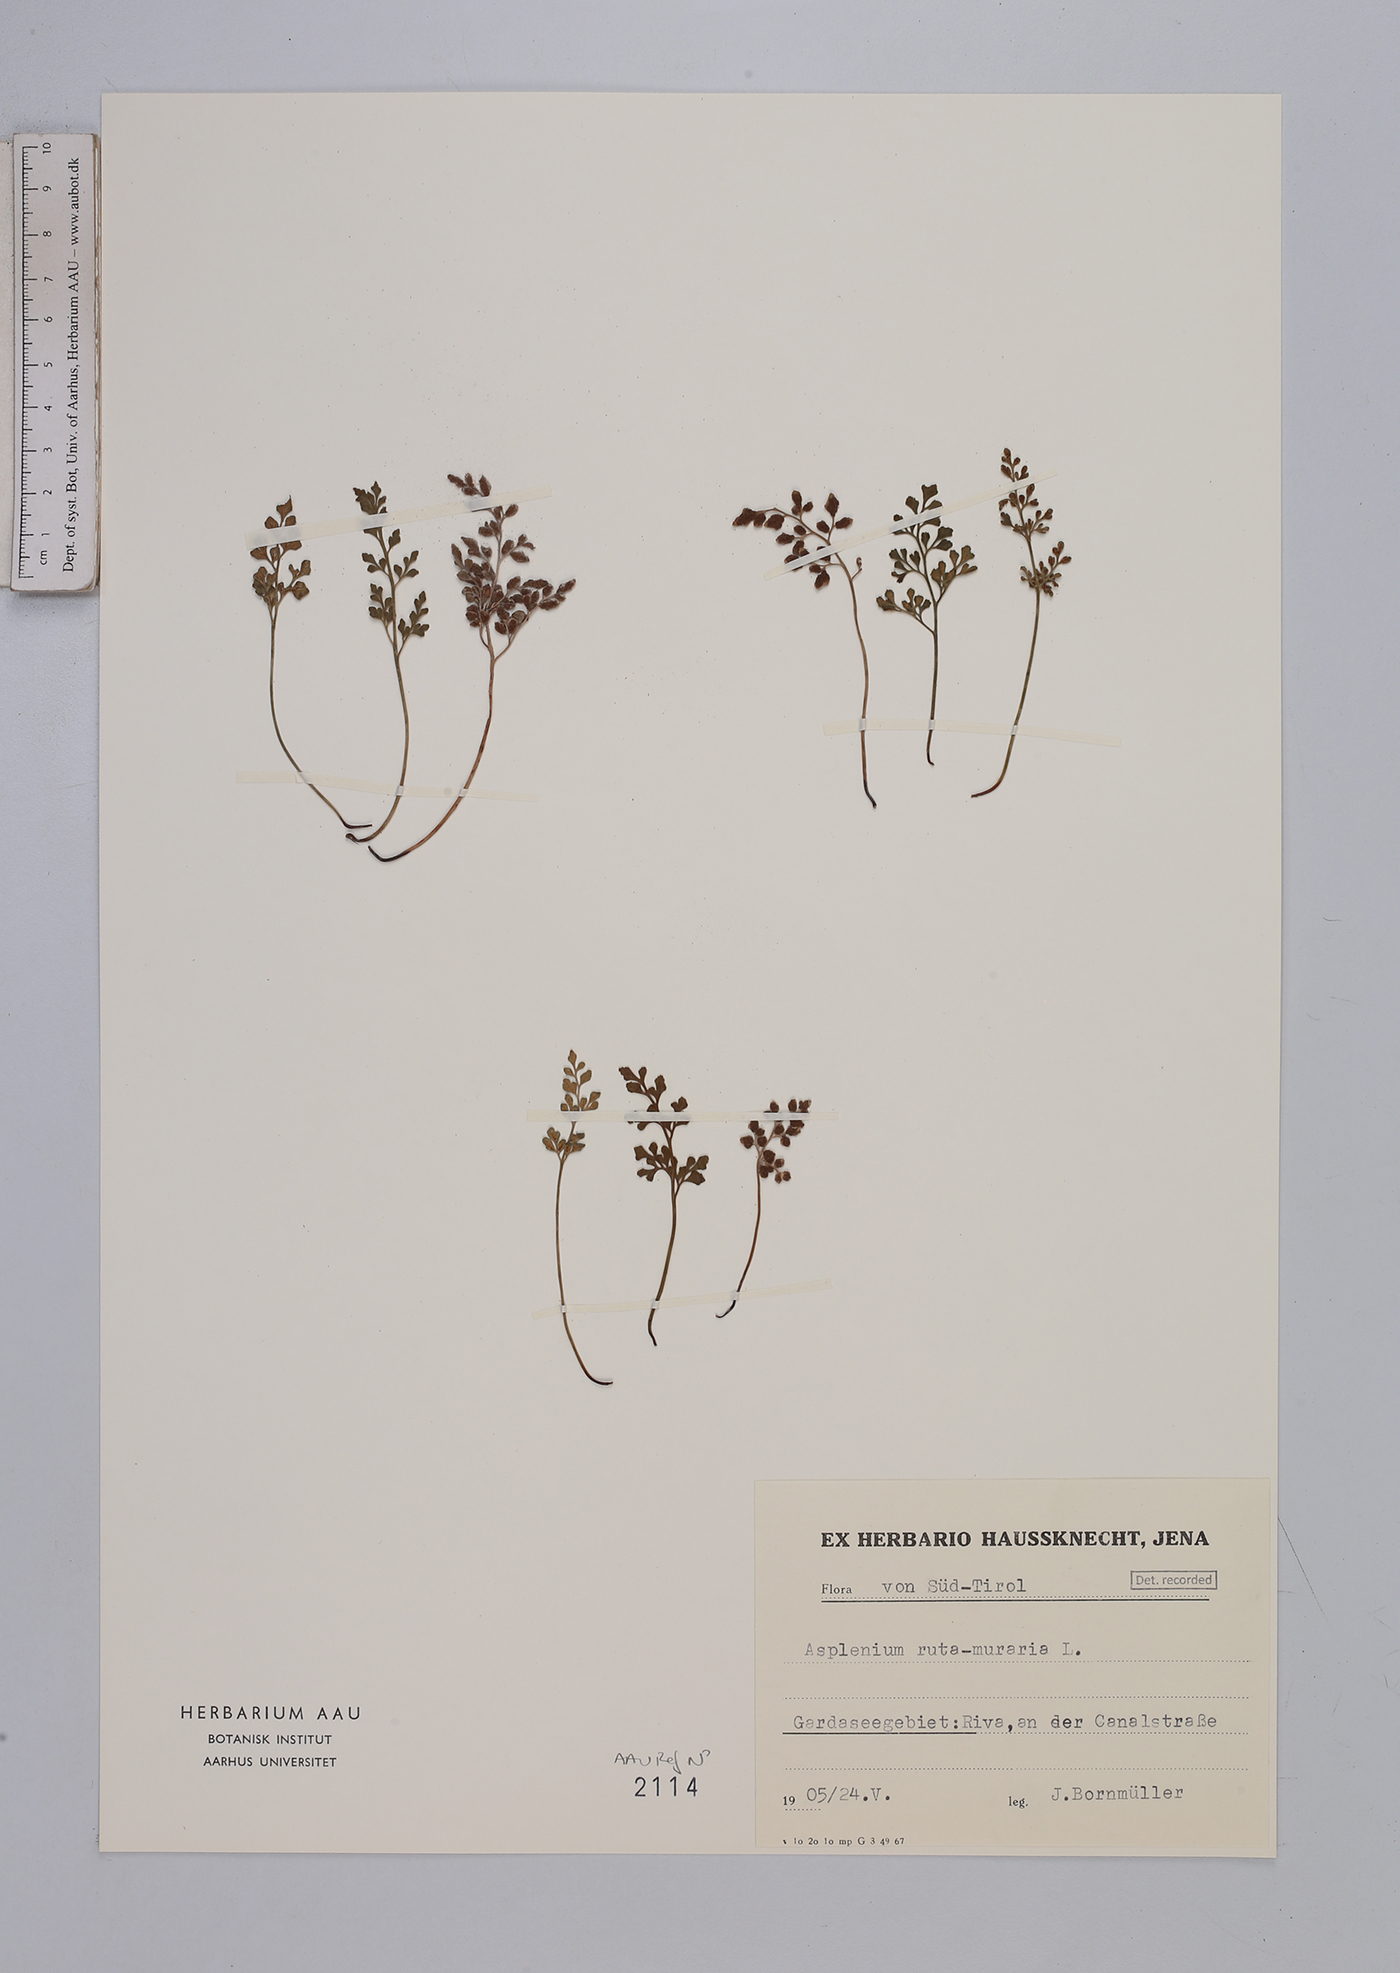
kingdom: Plantae
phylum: Tracheophyta
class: Polypodiopsida
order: Polypodiales
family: Aspleniaceae
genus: Asplenium
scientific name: Asplenium ruta-muraria
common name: Wall-rue
